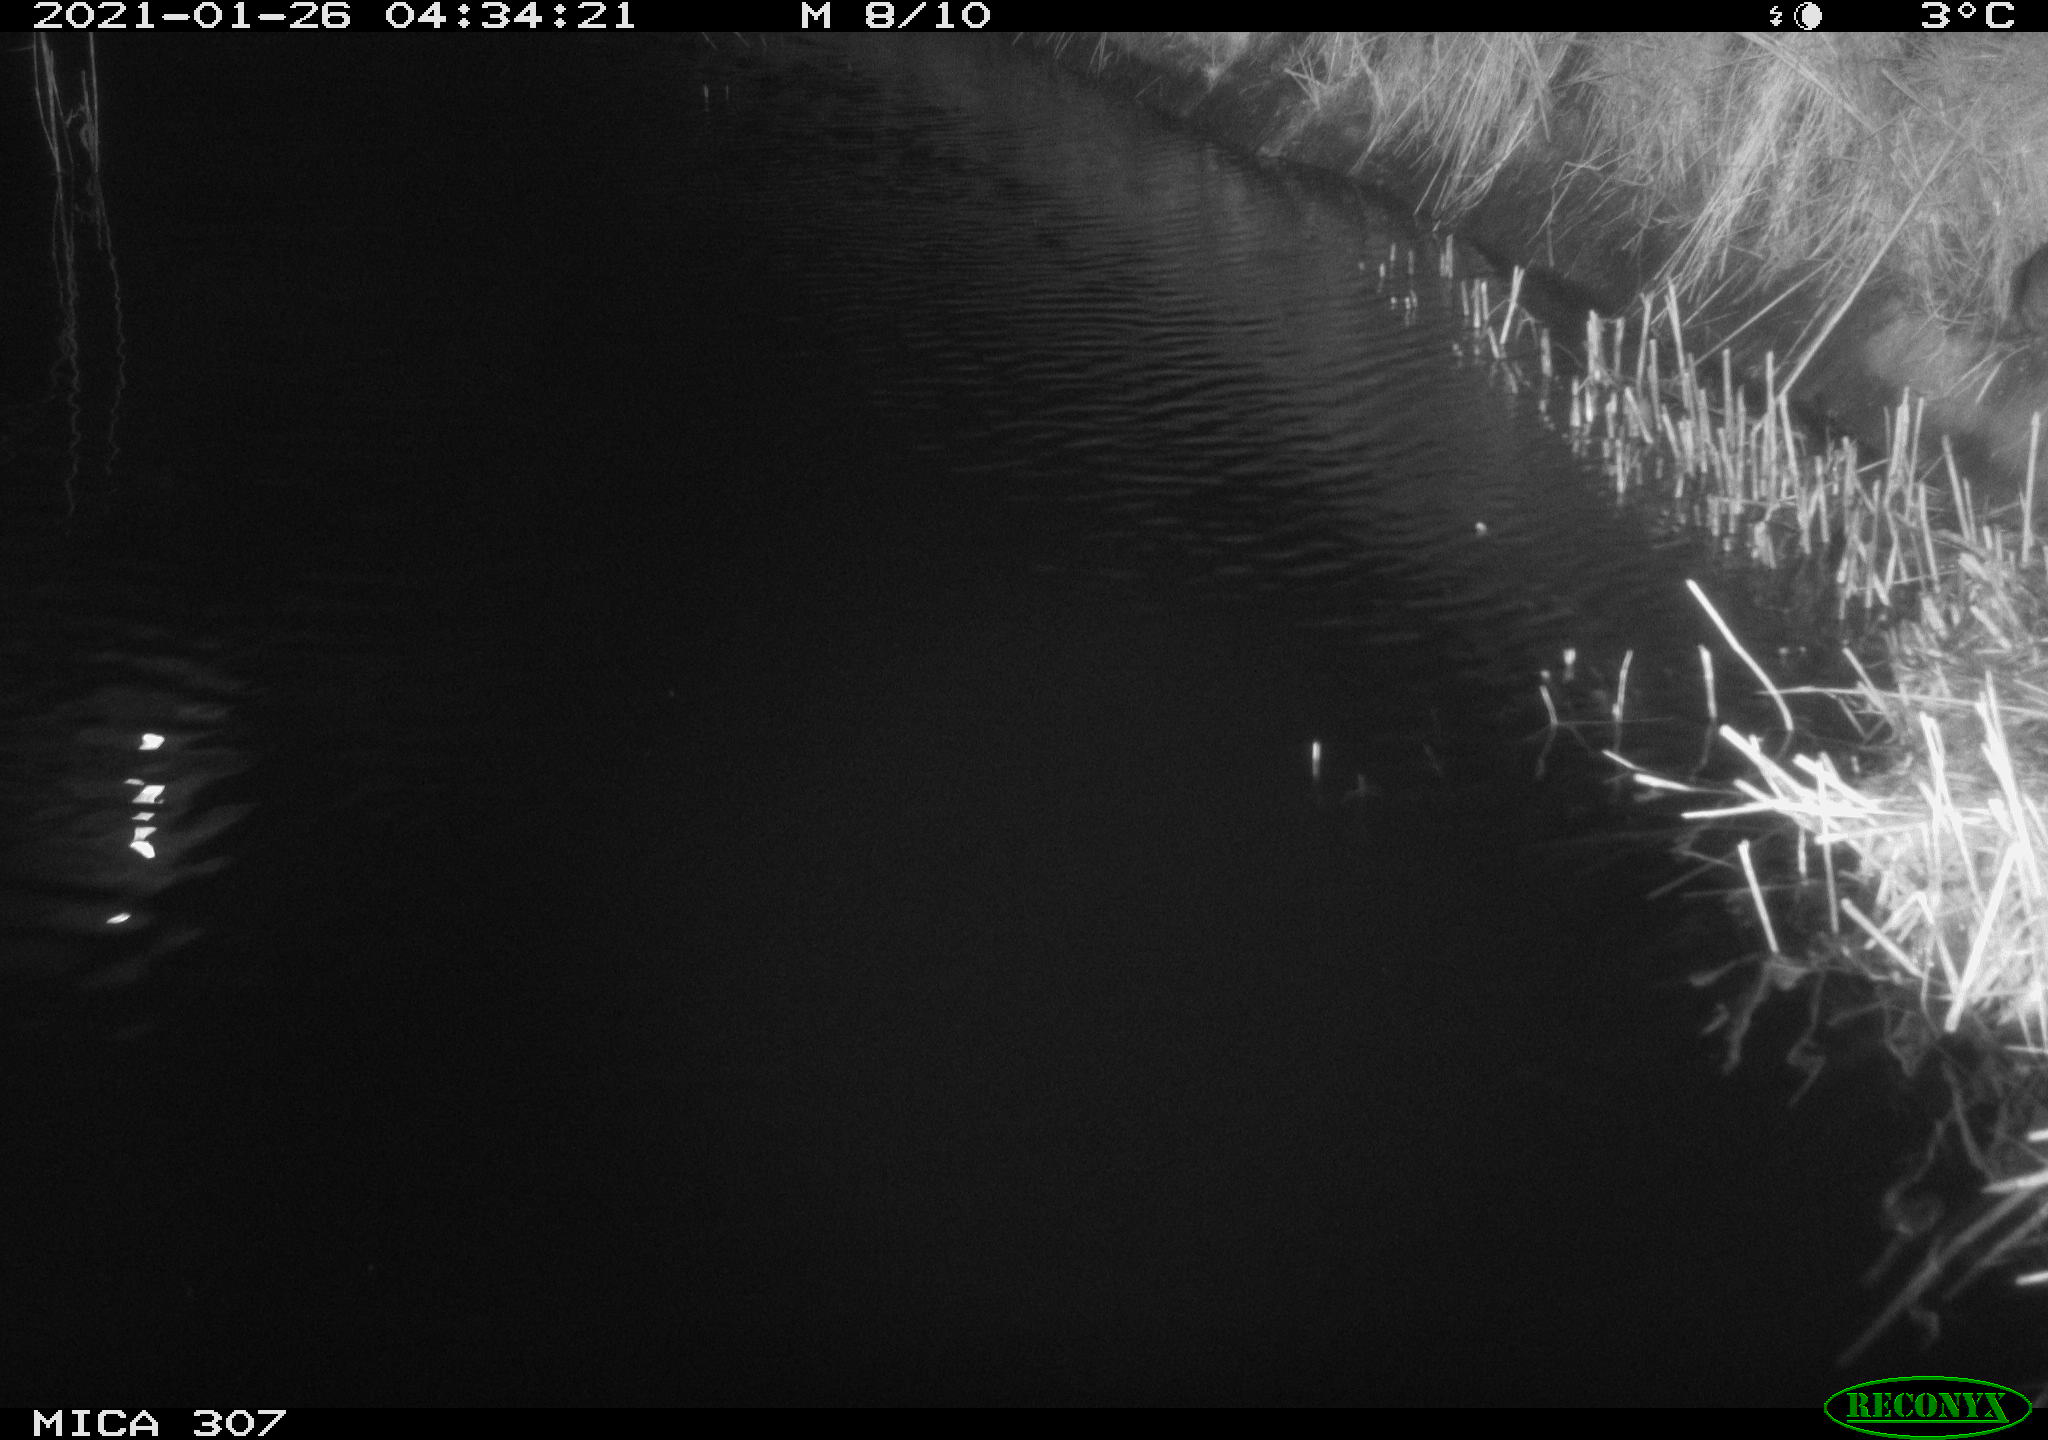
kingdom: Animalia
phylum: Chordata
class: Mammalia
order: Rodentia
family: Muridae
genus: Rattus
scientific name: Rattus norvegicus
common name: Brown rat
